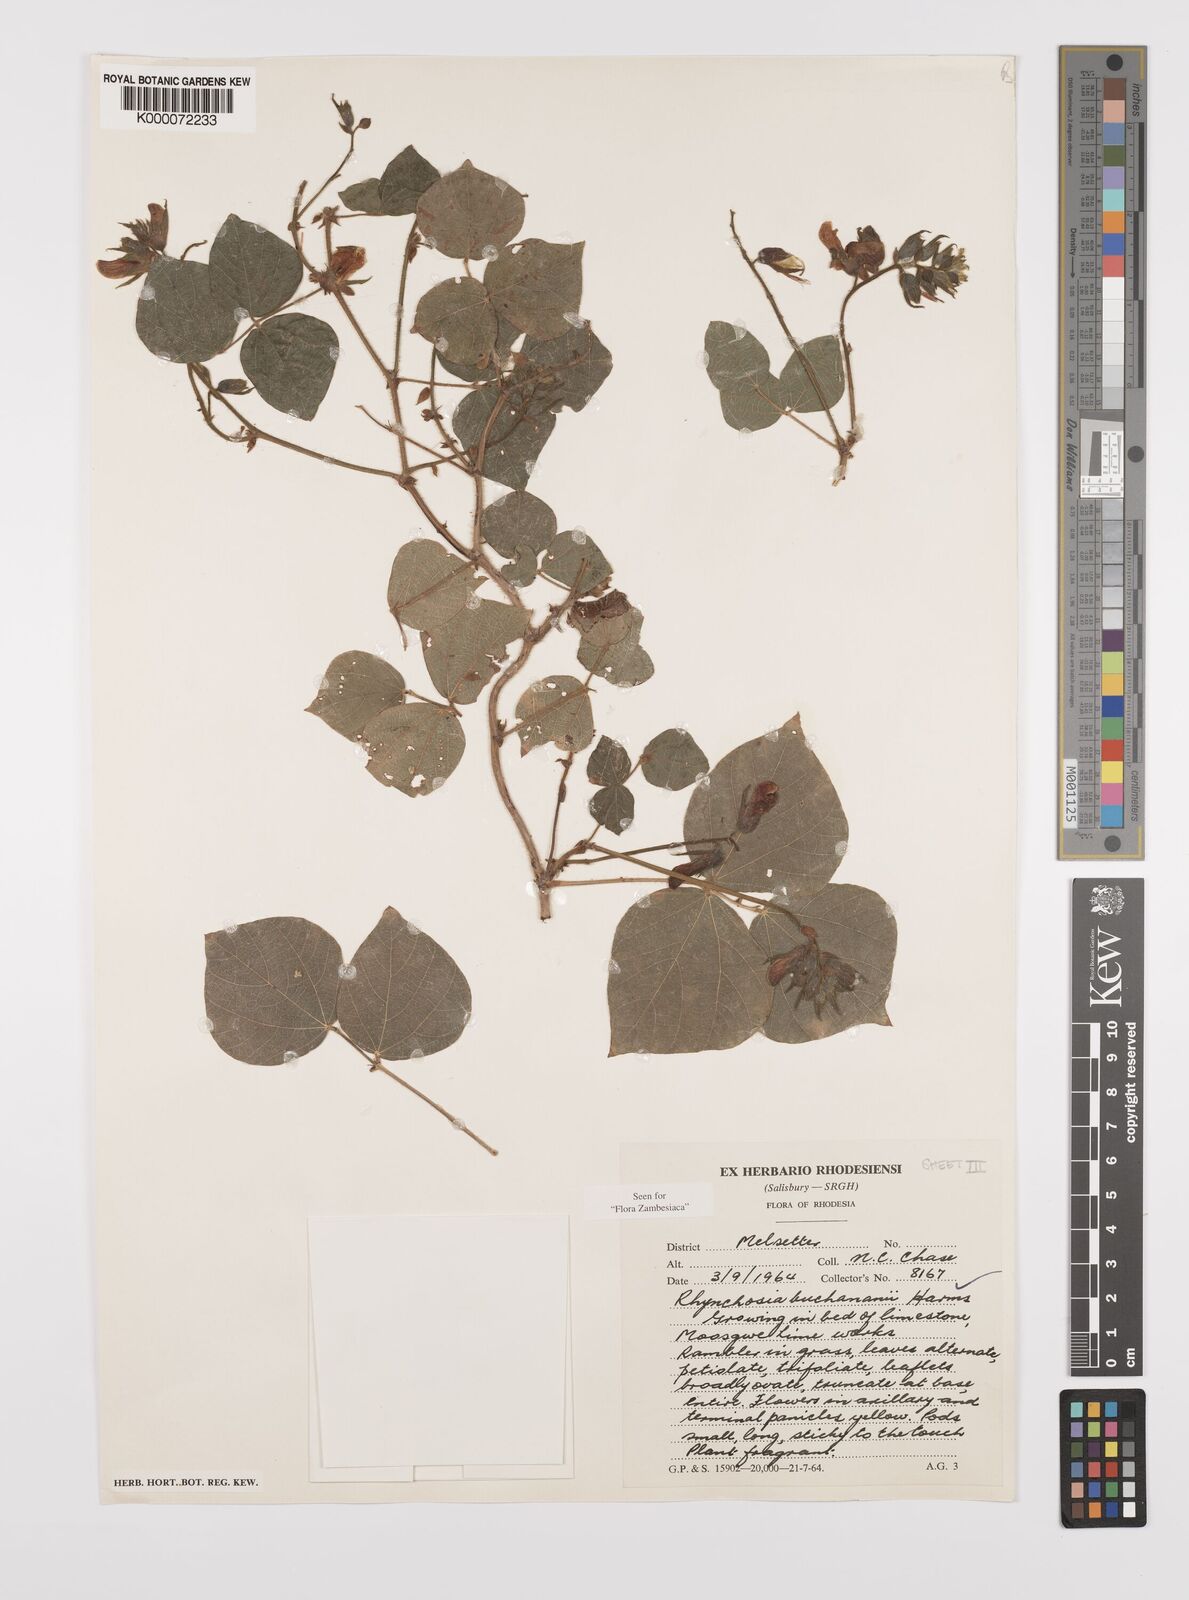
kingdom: Plantae
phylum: Tracheophyta
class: Magnoliopsida
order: Fabales
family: Fabaceae
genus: Rhynchosia
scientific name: Rhynchosia buchananii
